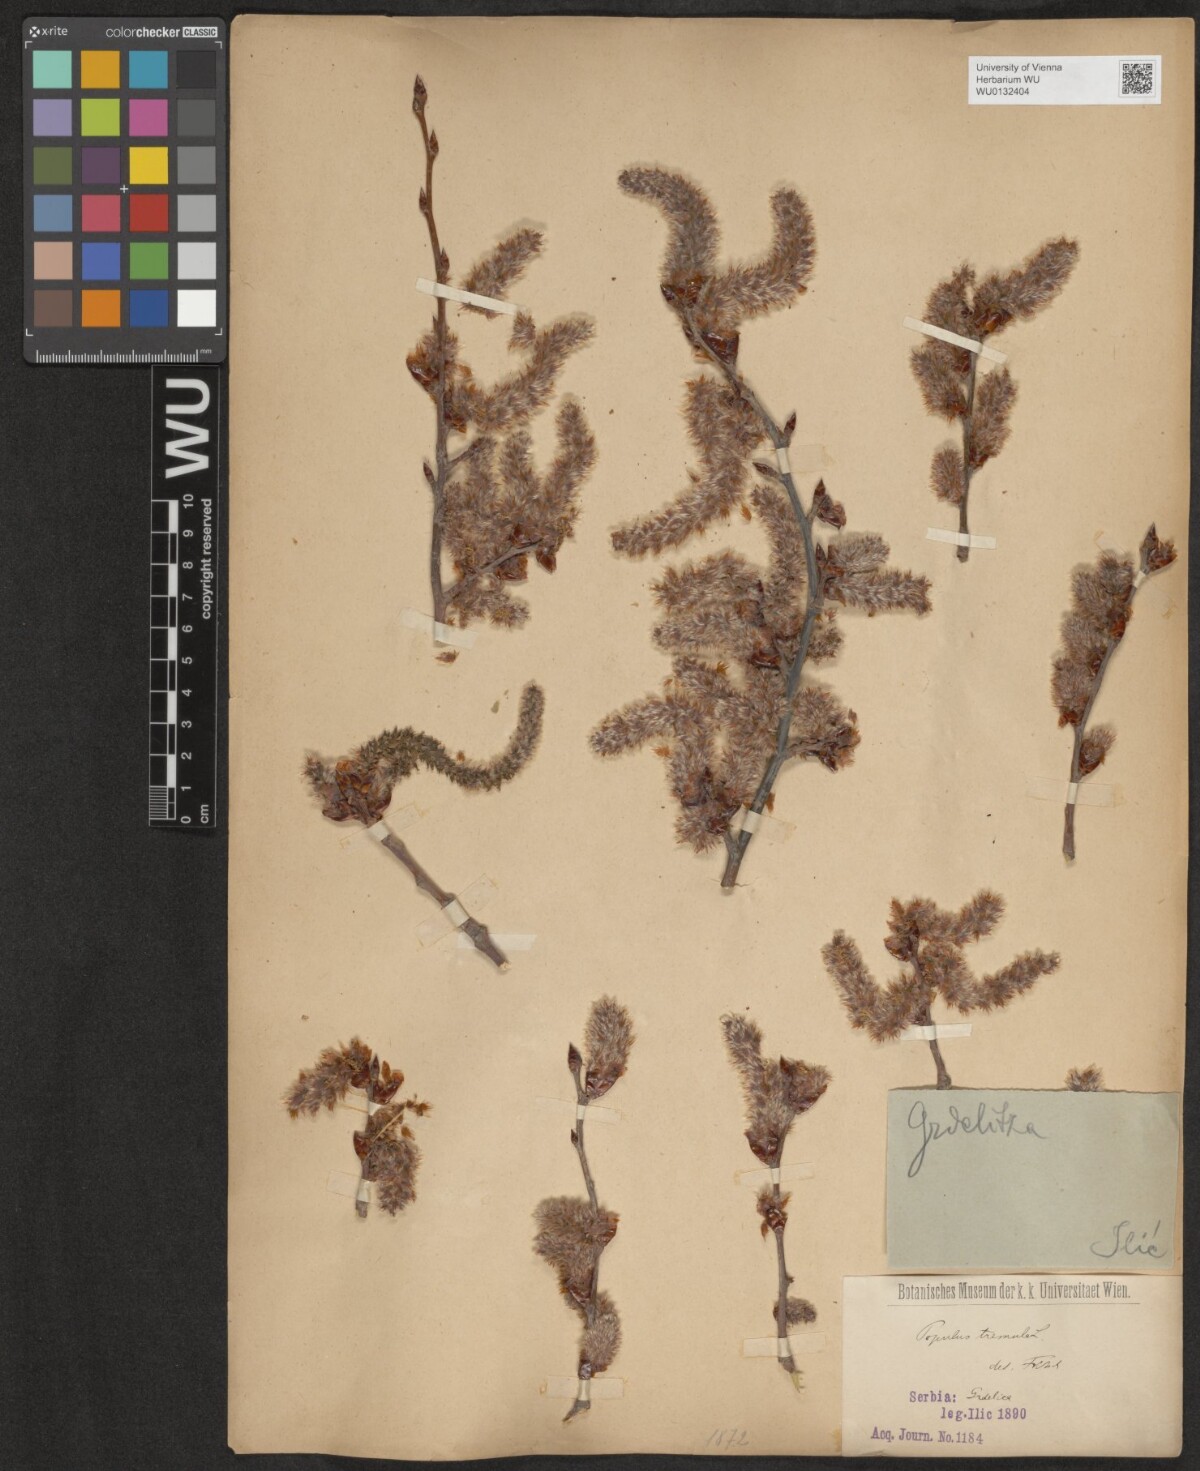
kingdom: Plantae
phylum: Tracheophyta
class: Magnoliopsida
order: Malpighiales
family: Salicaceae
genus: Populus
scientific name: Populus tremula
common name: European aspen
